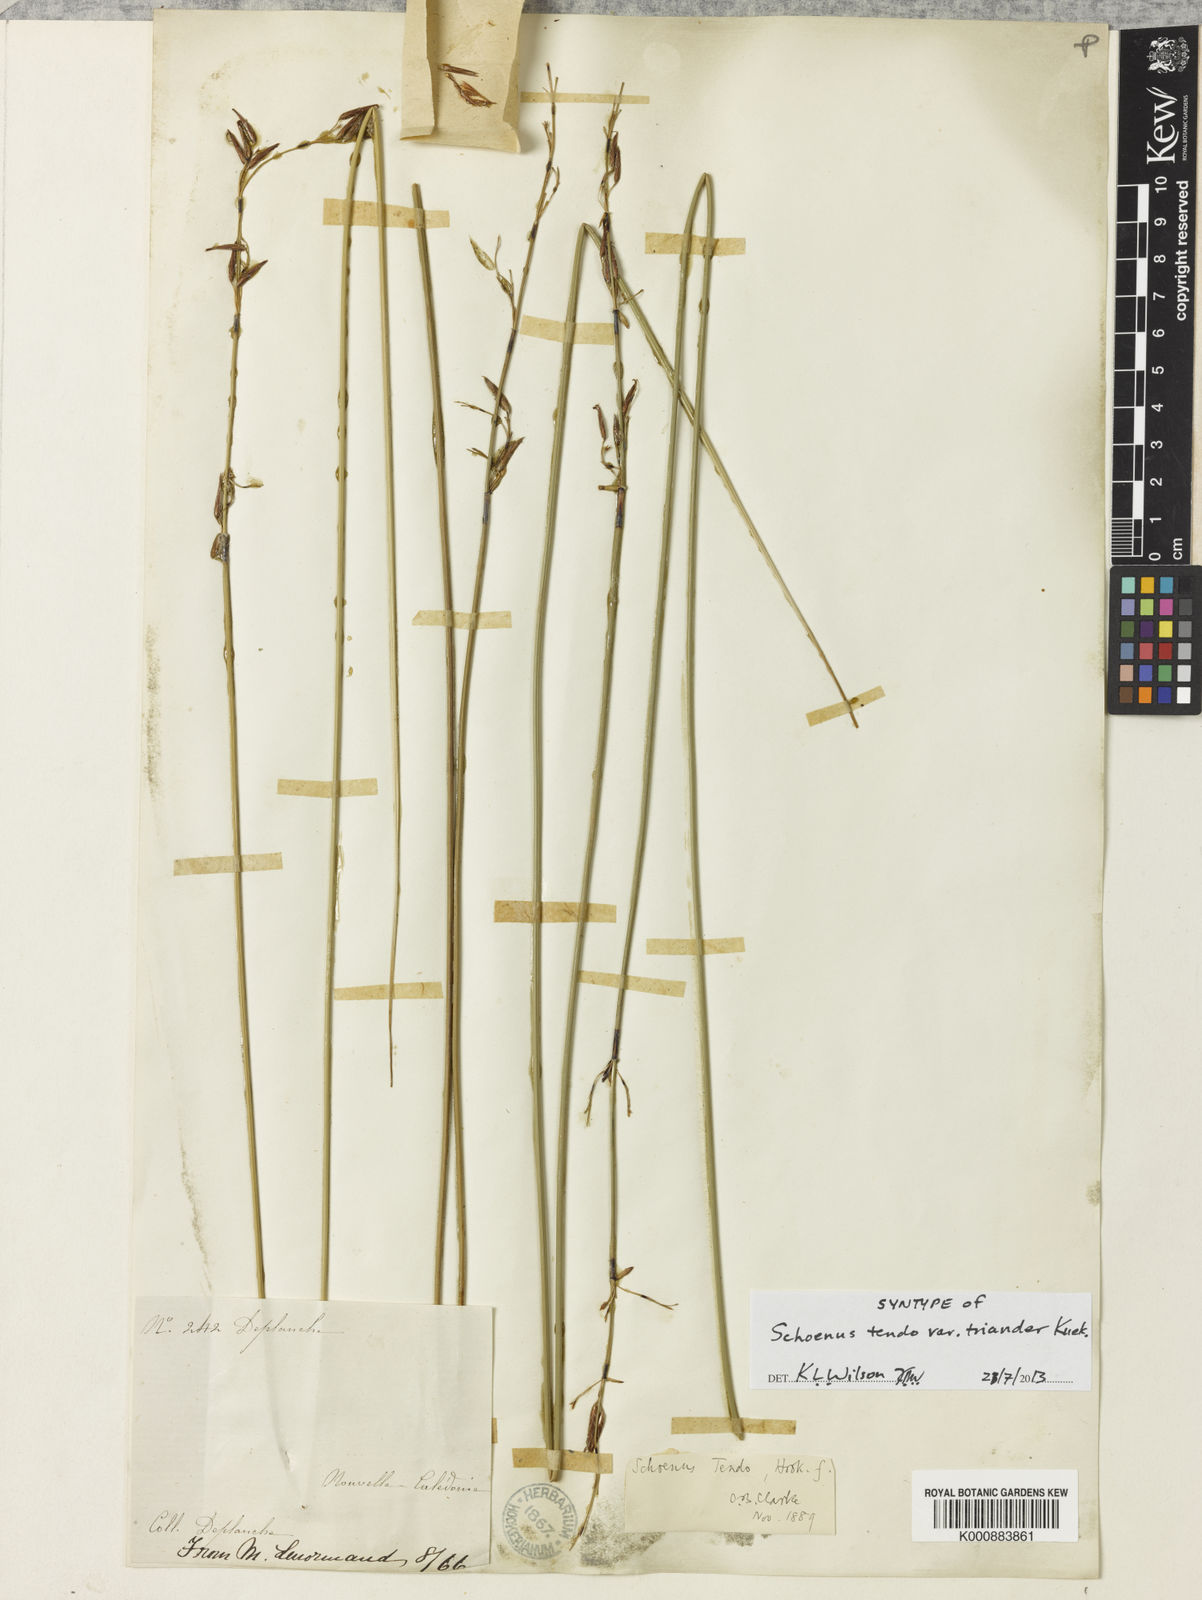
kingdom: Plantae
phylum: Tracheophyta
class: Liliopsida
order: Poales
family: Cyperaceae
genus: Schoenus
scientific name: Schoenus tendo
